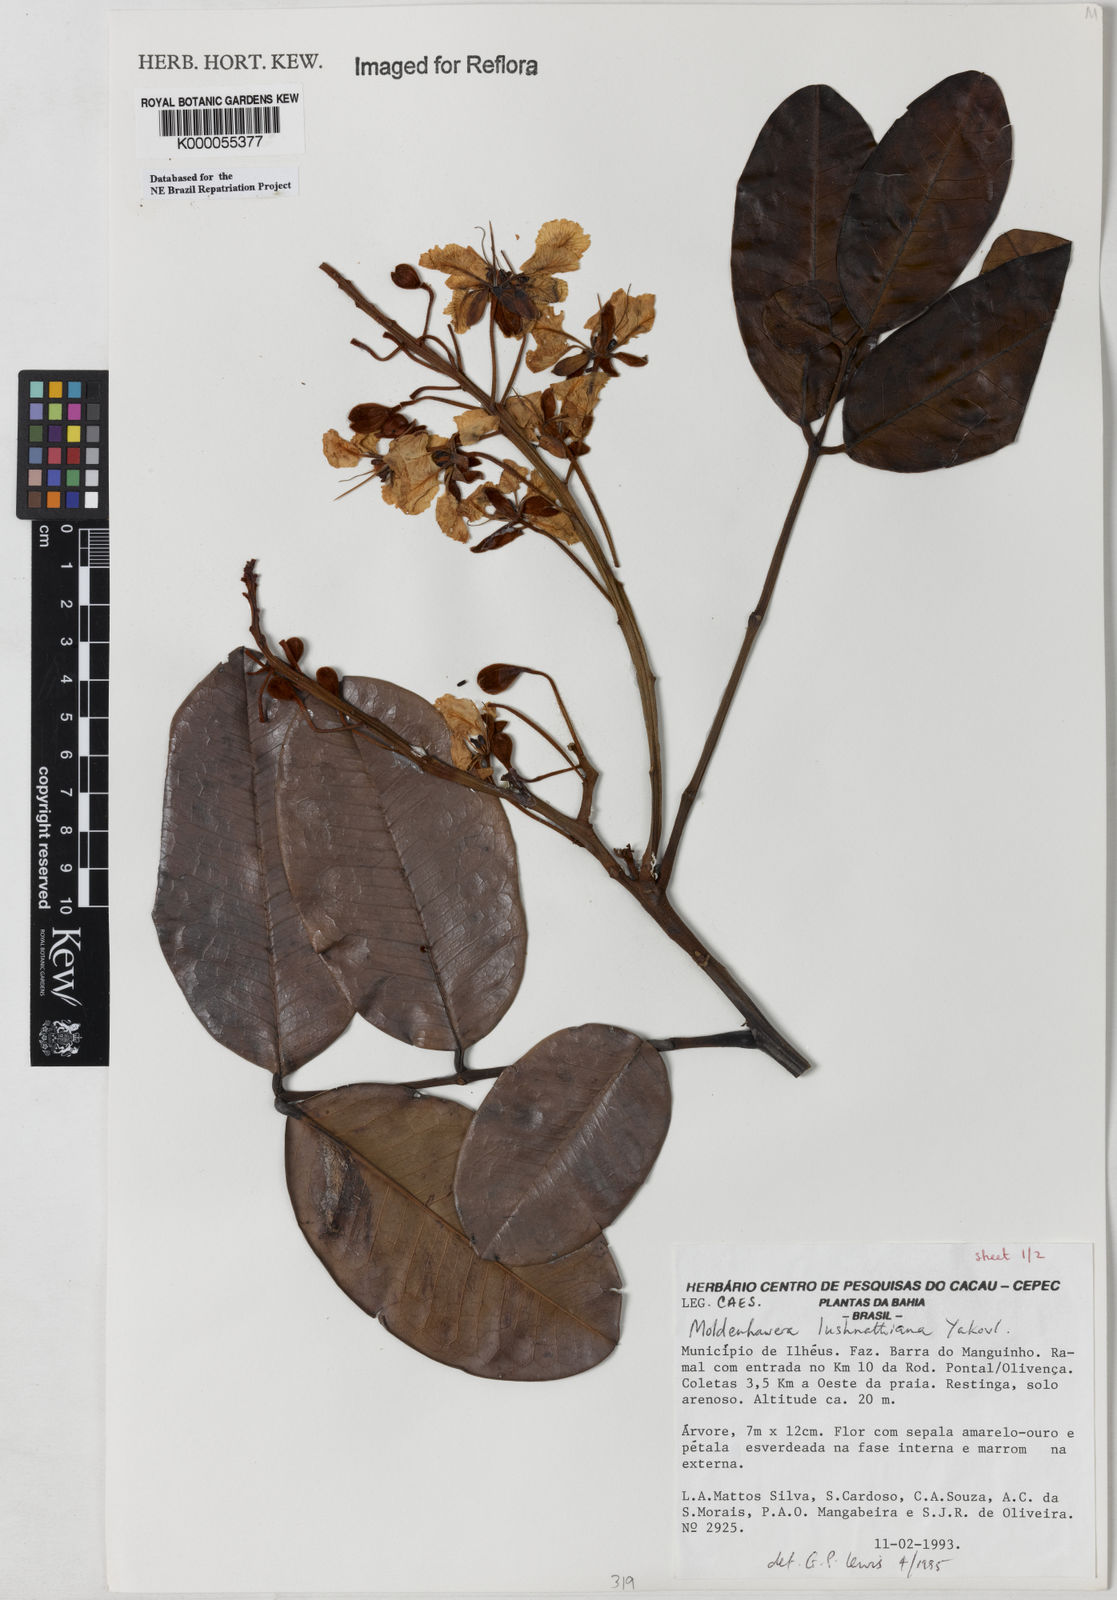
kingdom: Plantae
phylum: Tracheophyta
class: Magnoliopsida
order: Fabales
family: Fabaceae
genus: Moldenhawera
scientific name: Moldenhawera lushnathiana
